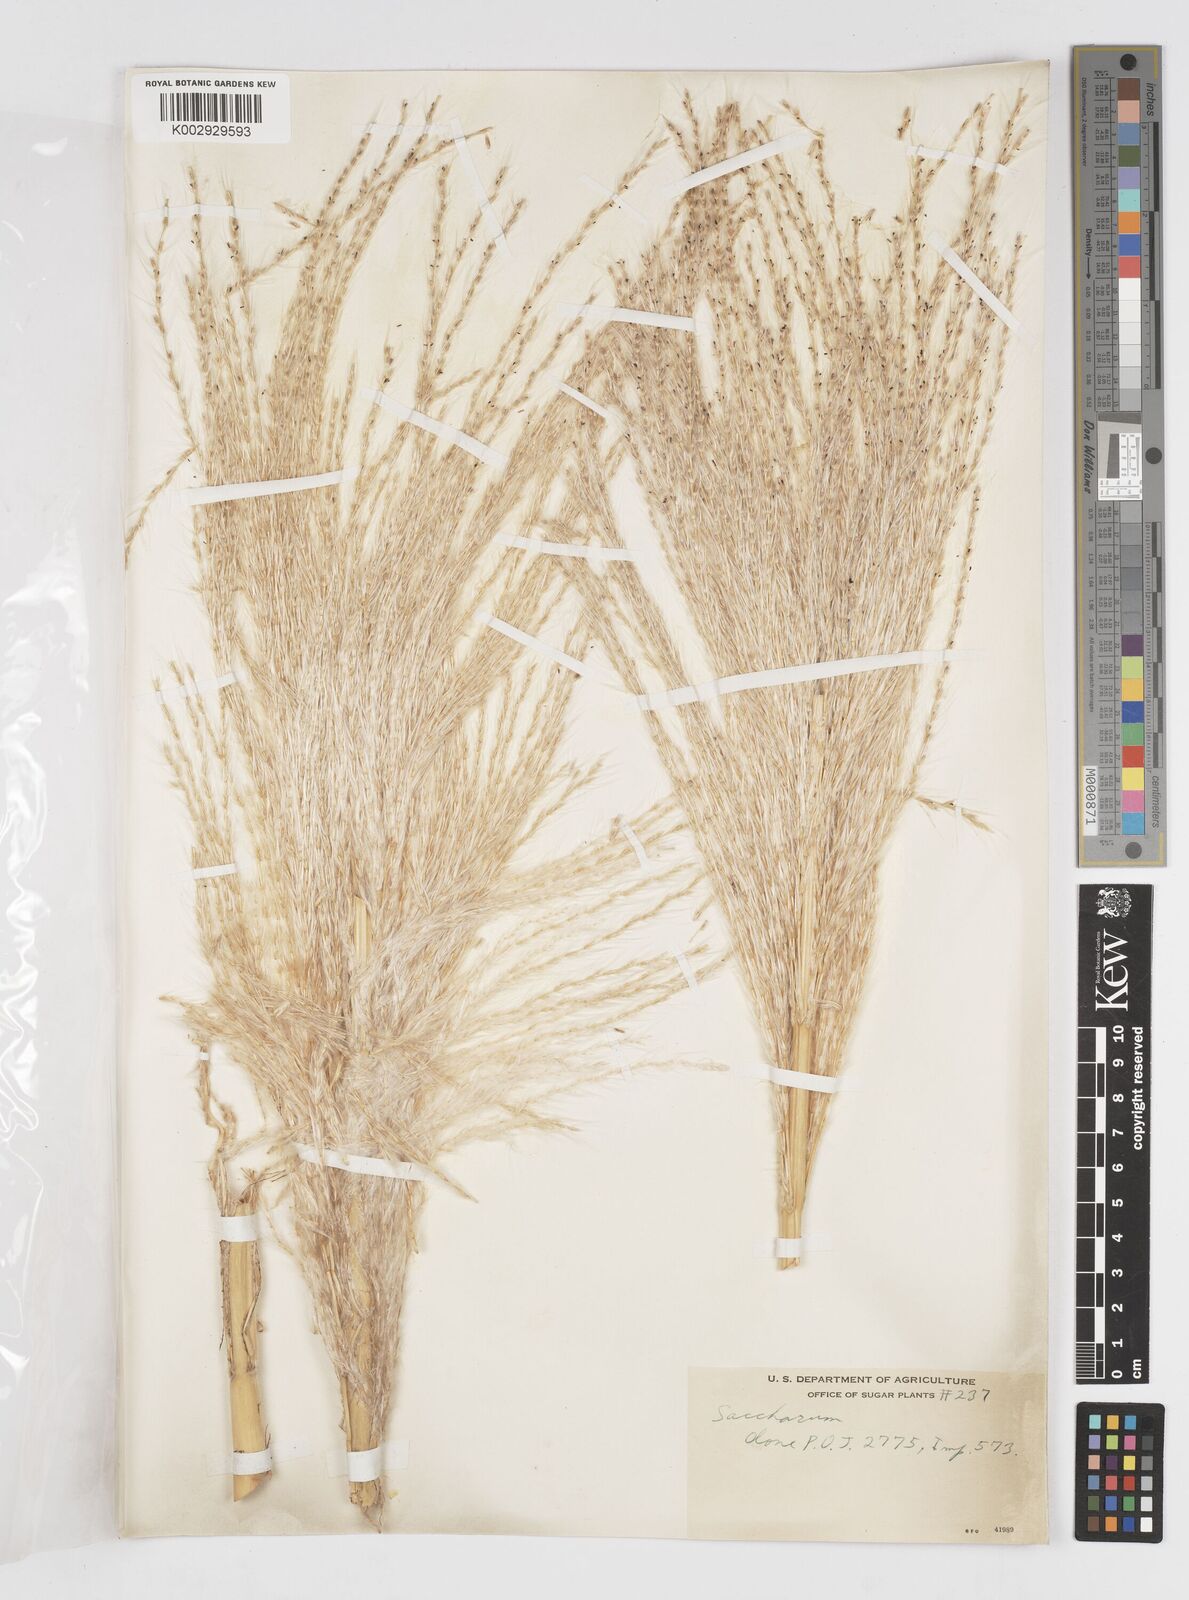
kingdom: Plantae
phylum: Tracheophyta
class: Liliopsida
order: Poales
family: Poaceae
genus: Saccharum
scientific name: Saccharum officinarum
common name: Sugarcane
